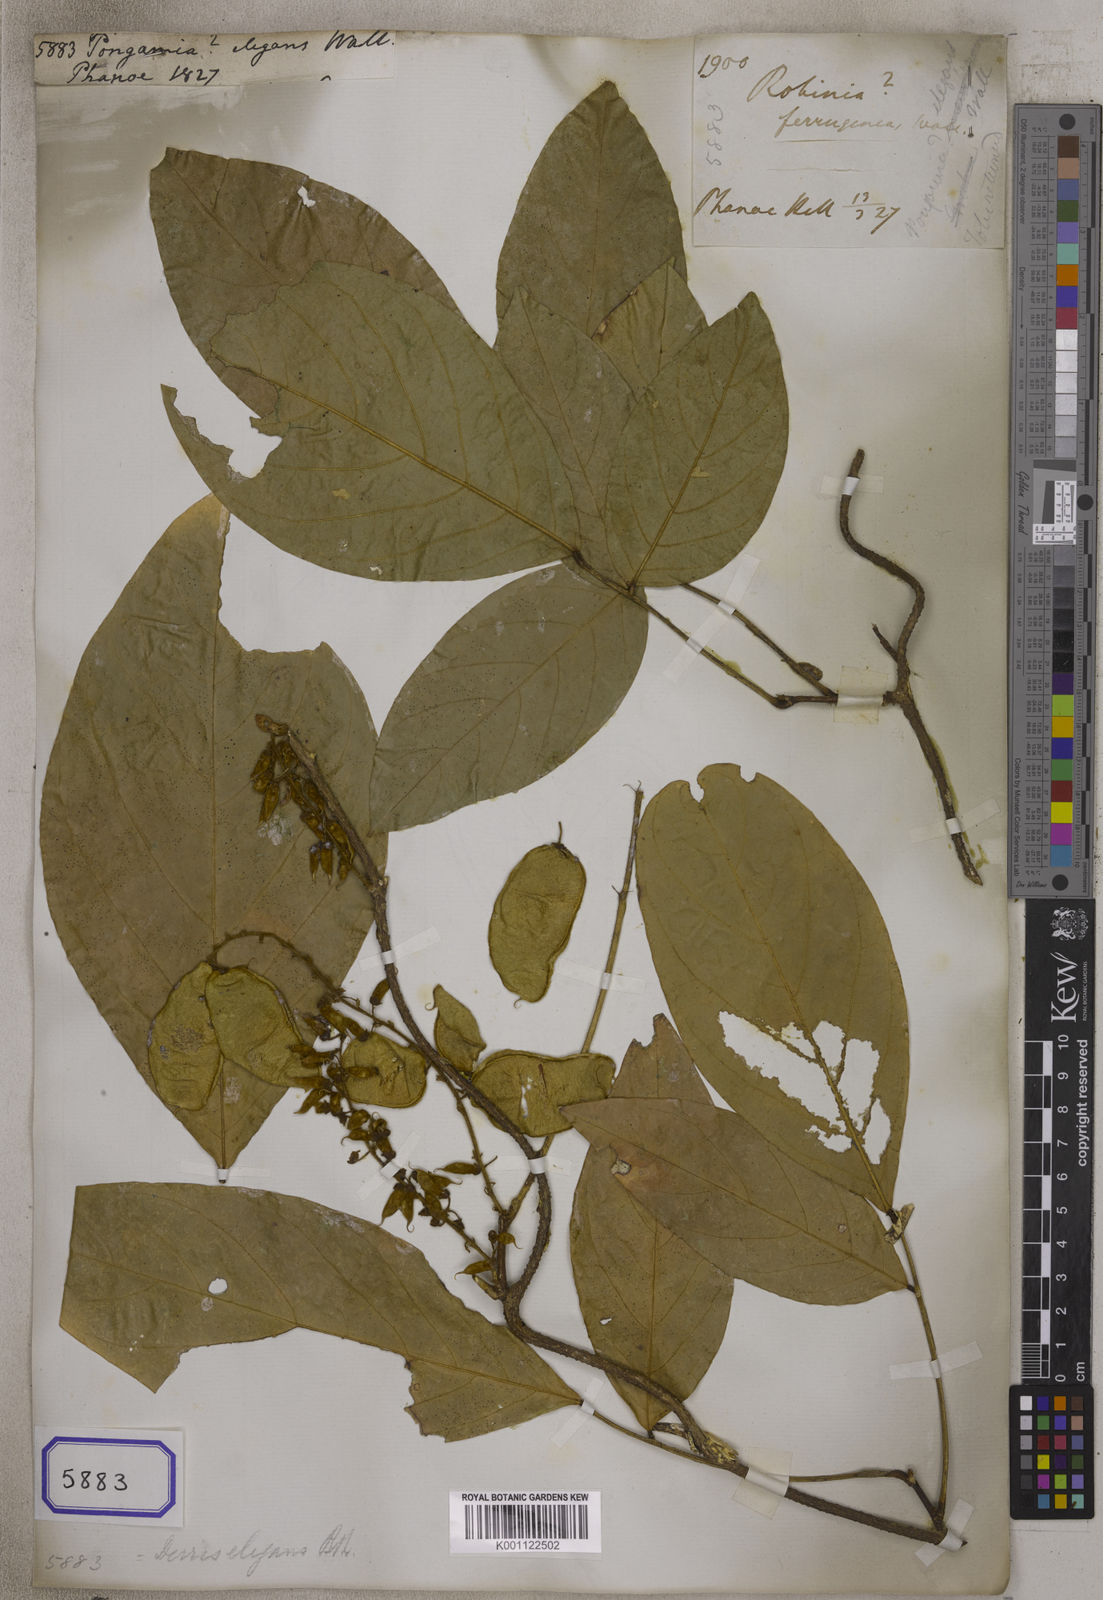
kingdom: Plantae
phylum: Tracheophyta
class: Magnoliopsida
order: Fabales
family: Fabaceae
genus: Derris
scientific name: Derris elegans
